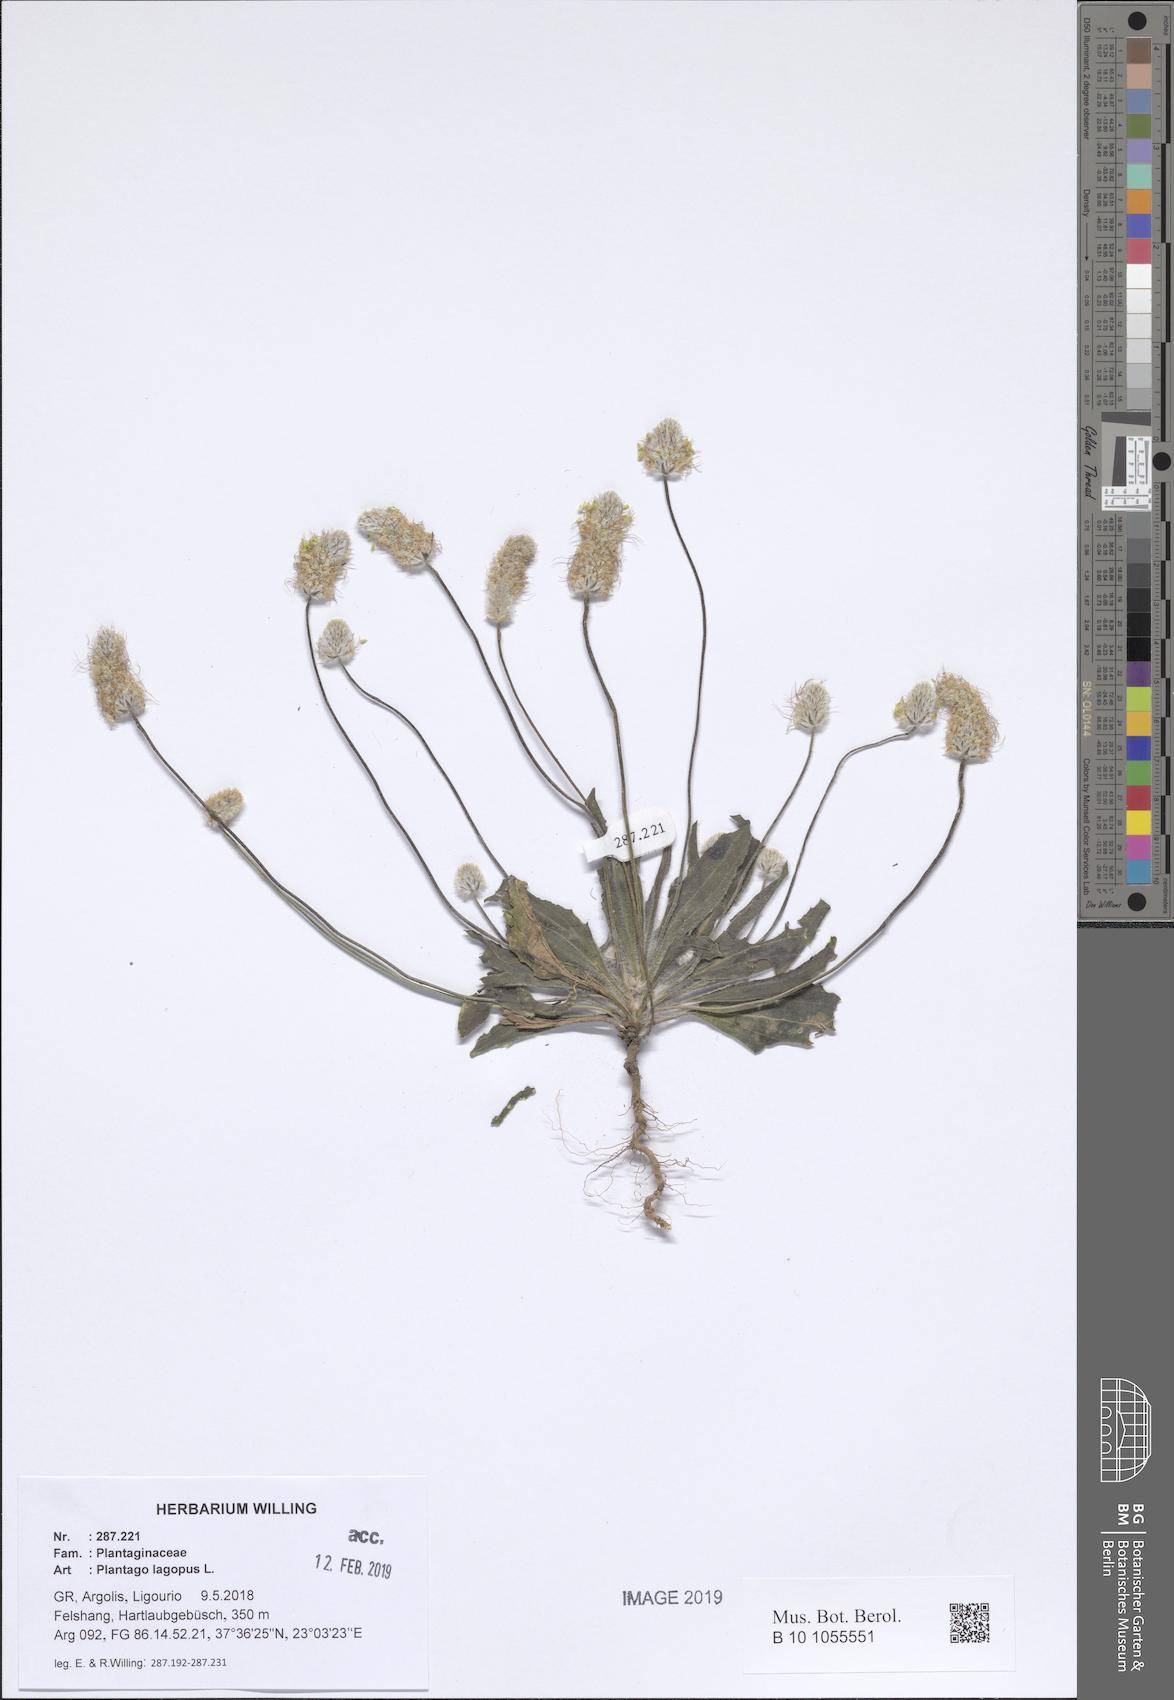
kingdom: Plantae
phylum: Tracheophyta
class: Magnoliopsida
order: Lamiales
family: Plantaginaceae
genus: Plantago
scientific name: Plantago lagopus
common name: Hare-foot plantain
